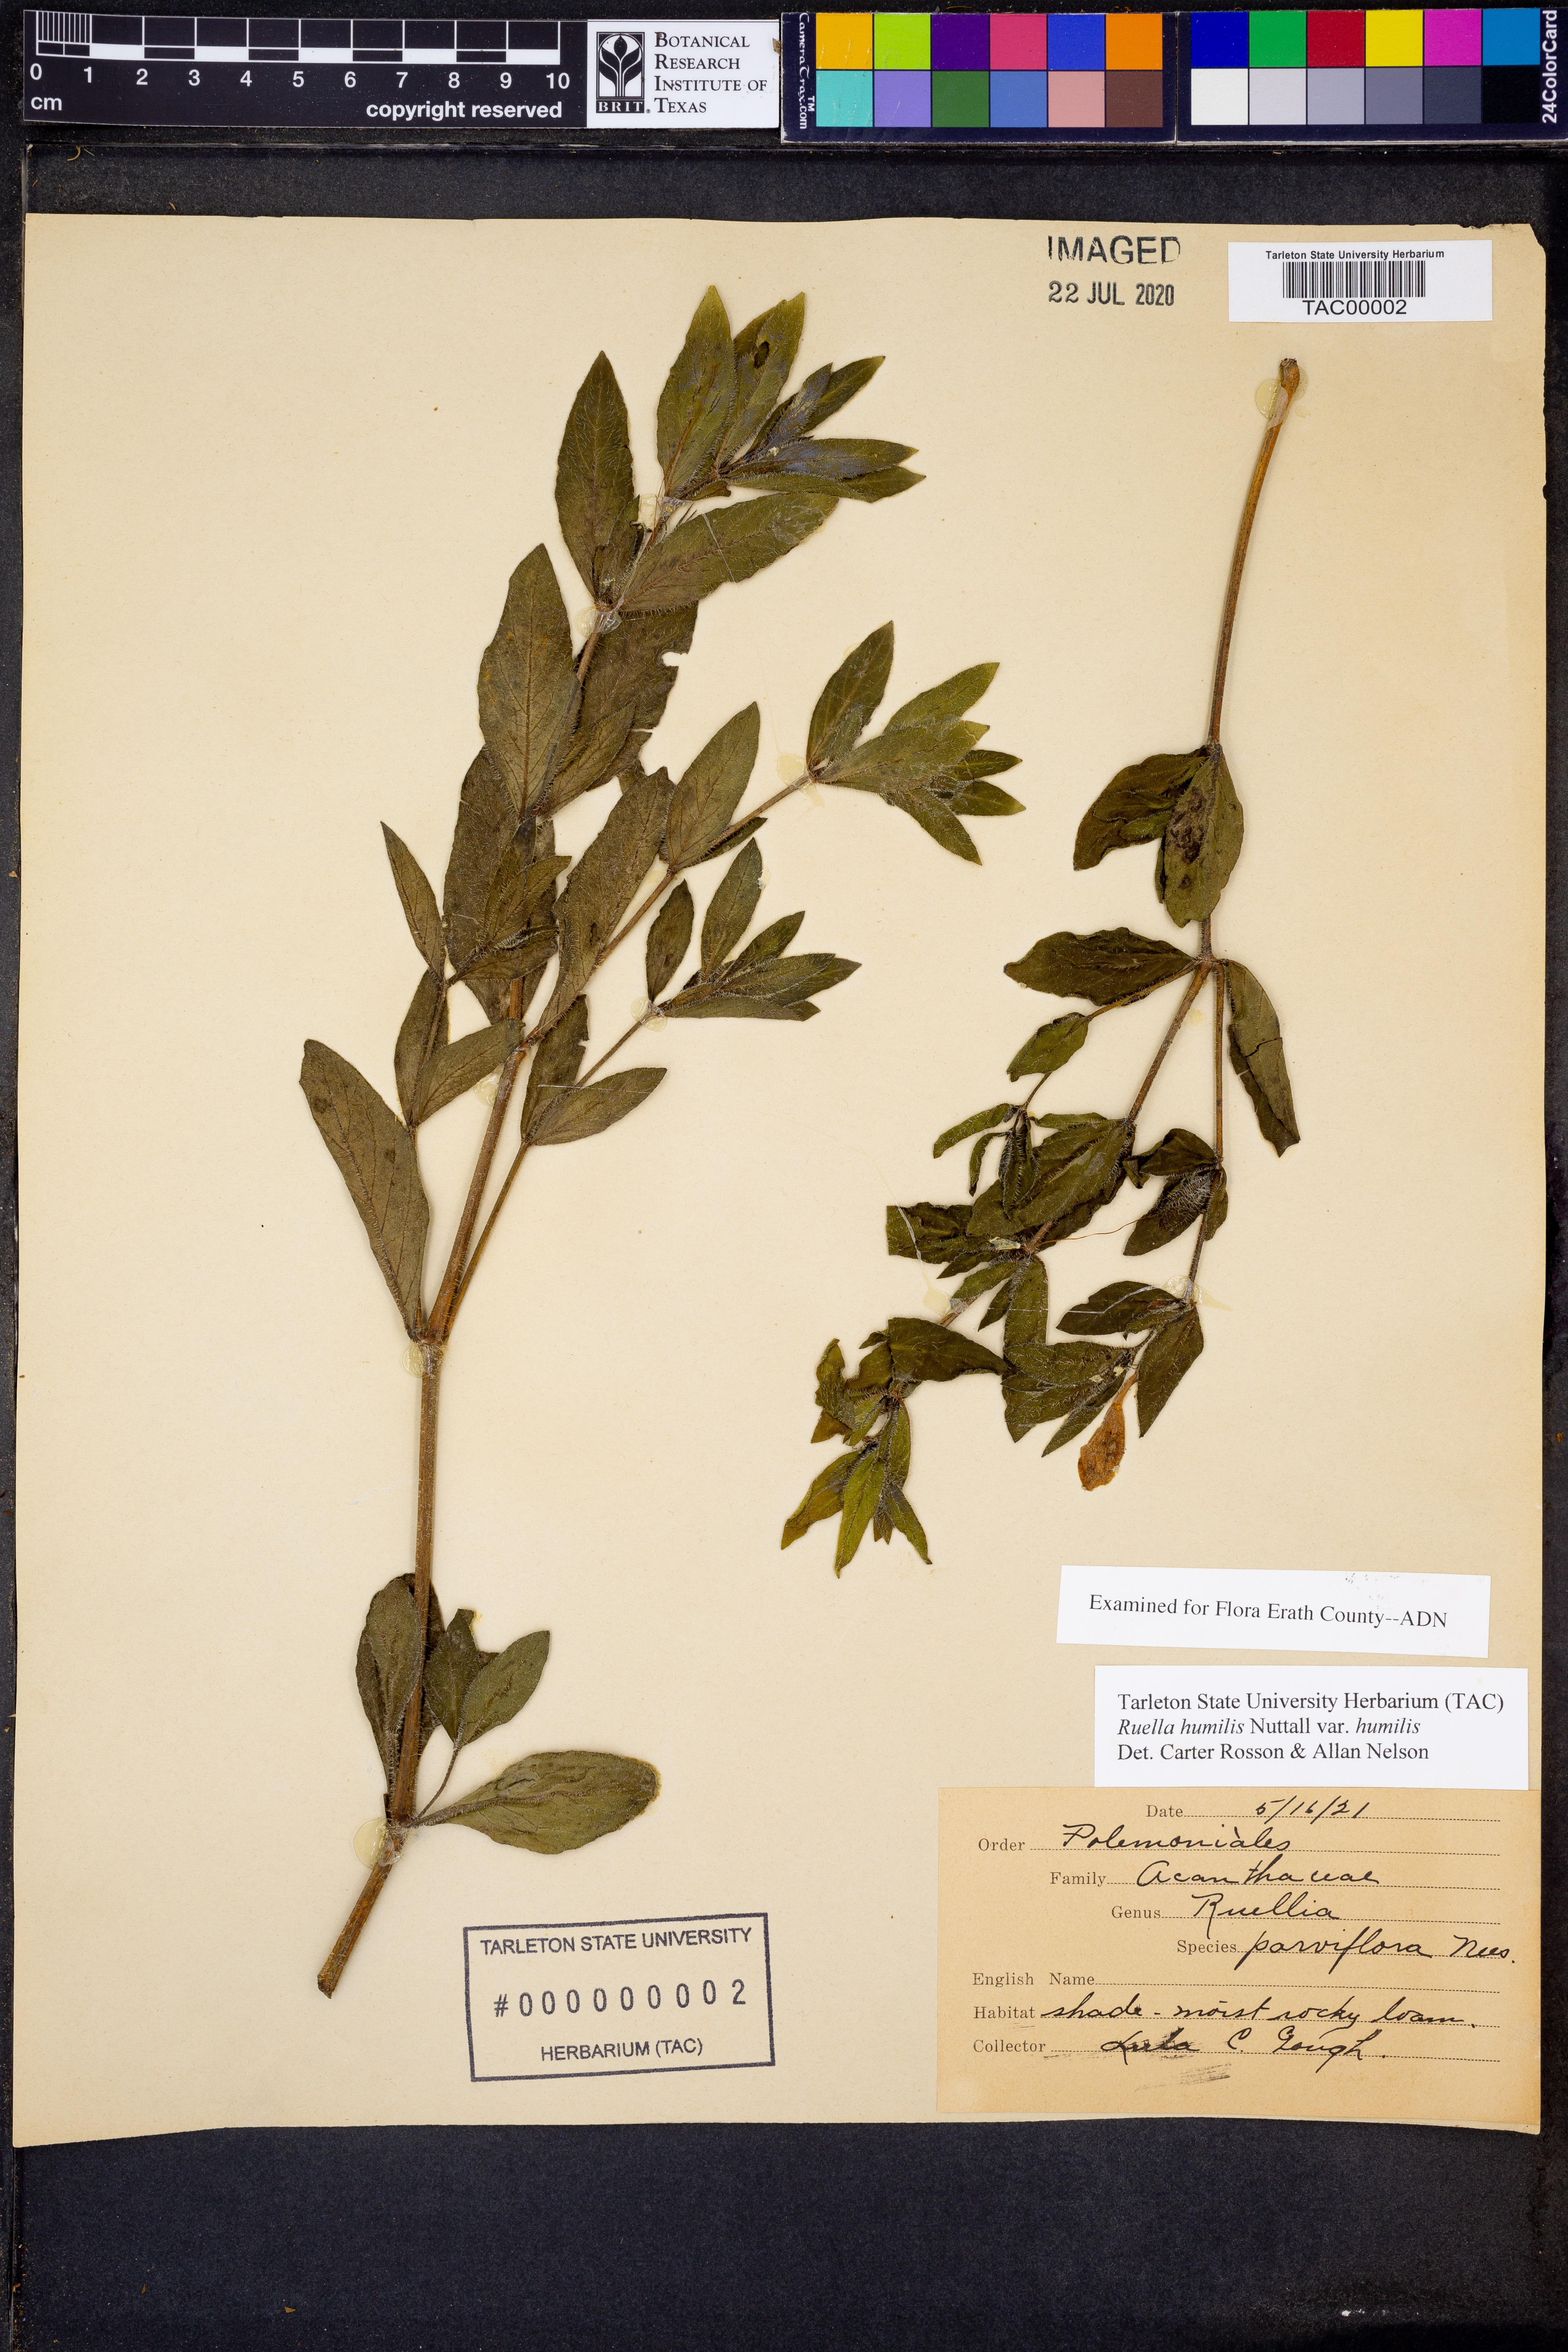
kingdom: Plantae
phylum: Tracheophyta
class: Magnoliopsida
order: Lamiales
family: Acanthaceae
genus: Ruellia
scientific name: Ruellia humilis
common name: Fringe-leaf ruellia
